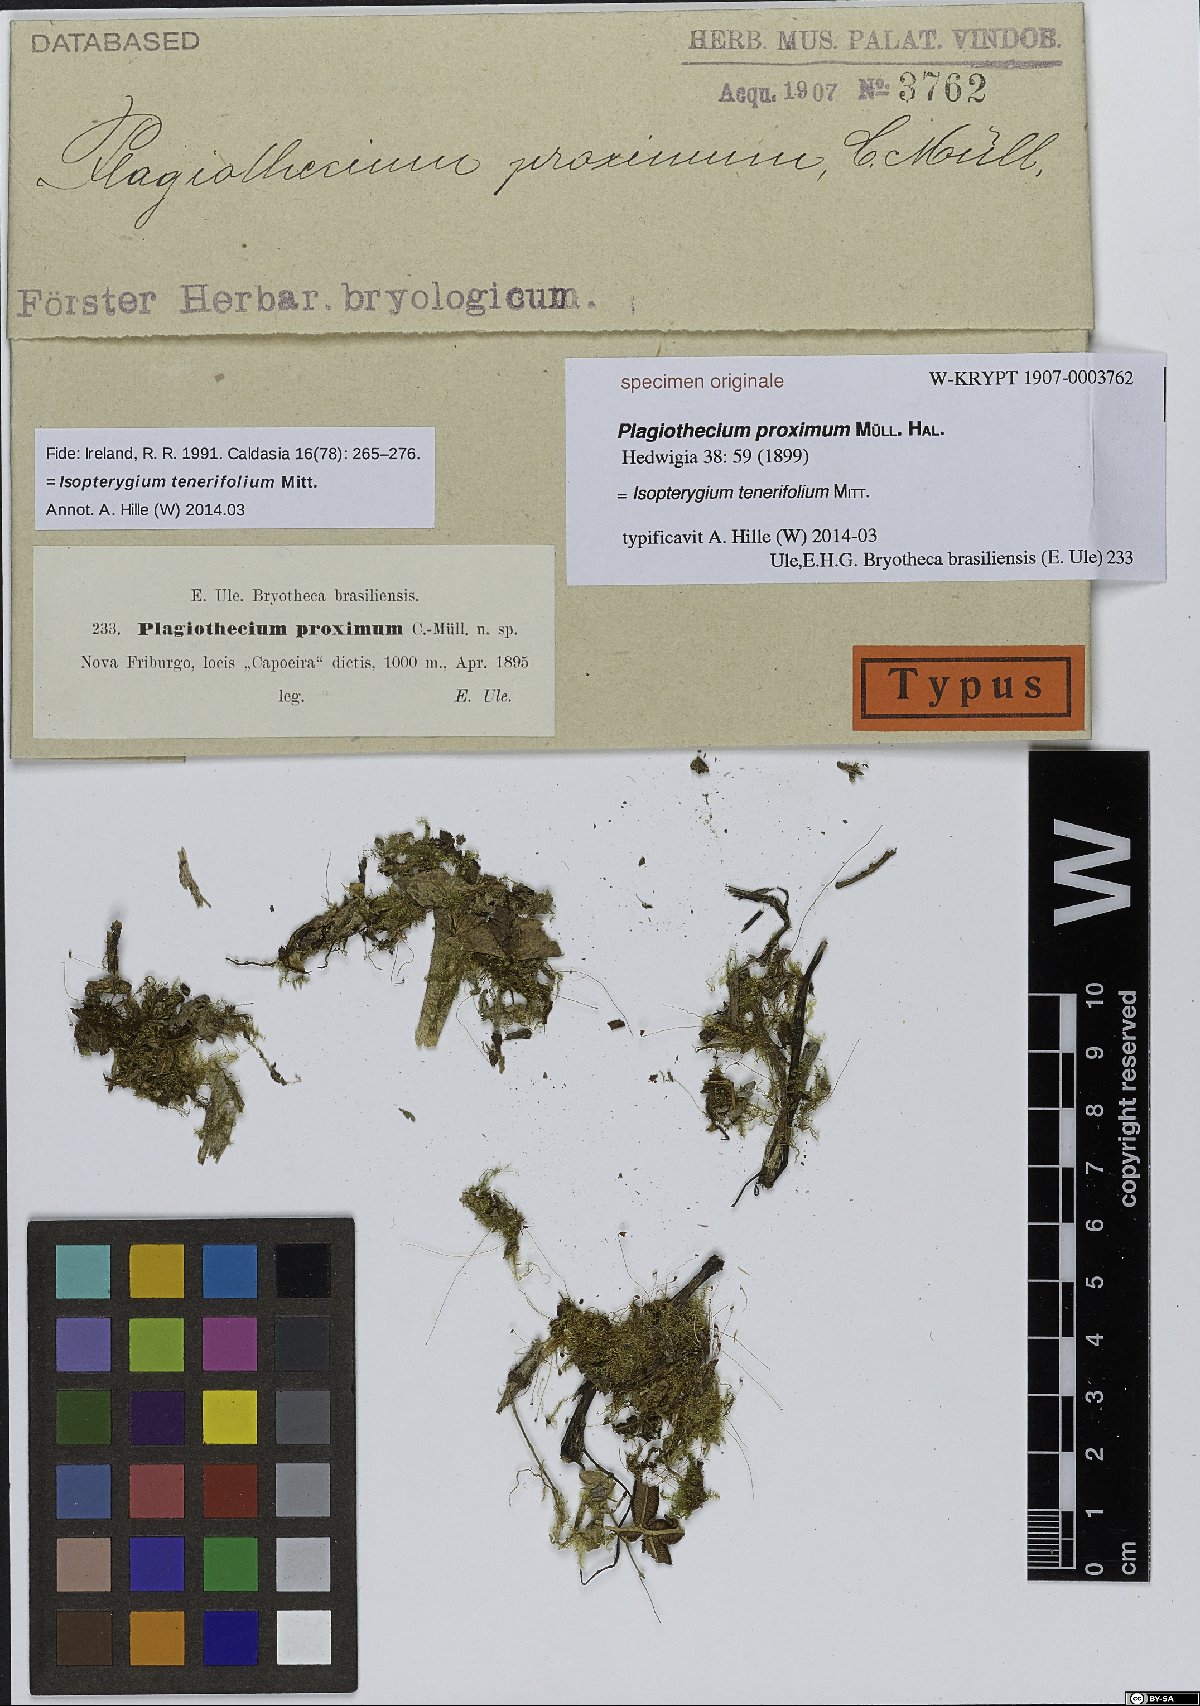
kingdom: Plantae
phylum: Bryophyta
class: Bryopsida
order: Hypnales
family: Plagiotheciaceae
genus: Plagiothecium
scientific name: Plagiothecium
